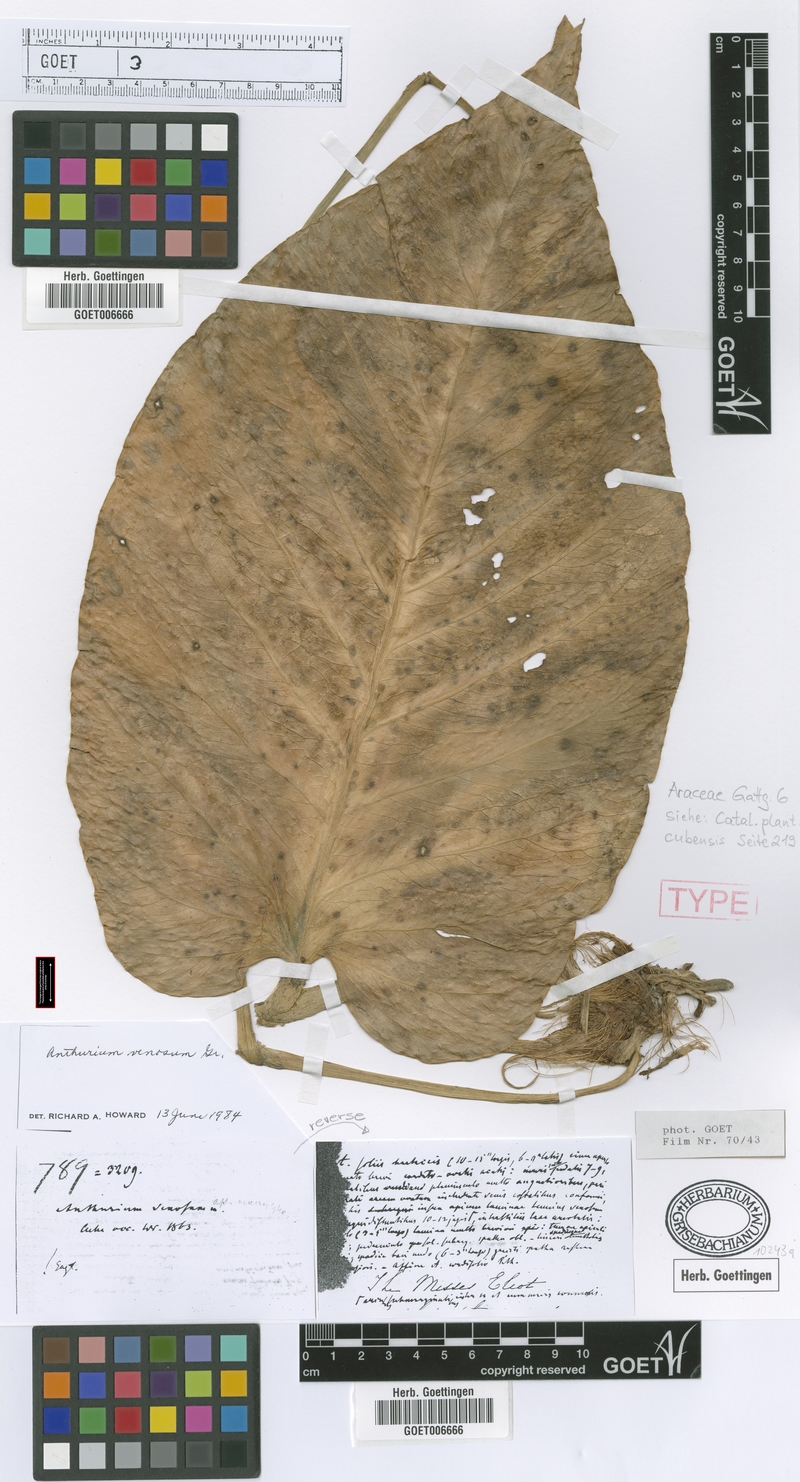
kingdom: Plantae
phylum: Tracheophyta
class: Liliopsida
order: Alismatales
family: Araceae
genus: Anthurium
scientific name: Anthurium venosum
